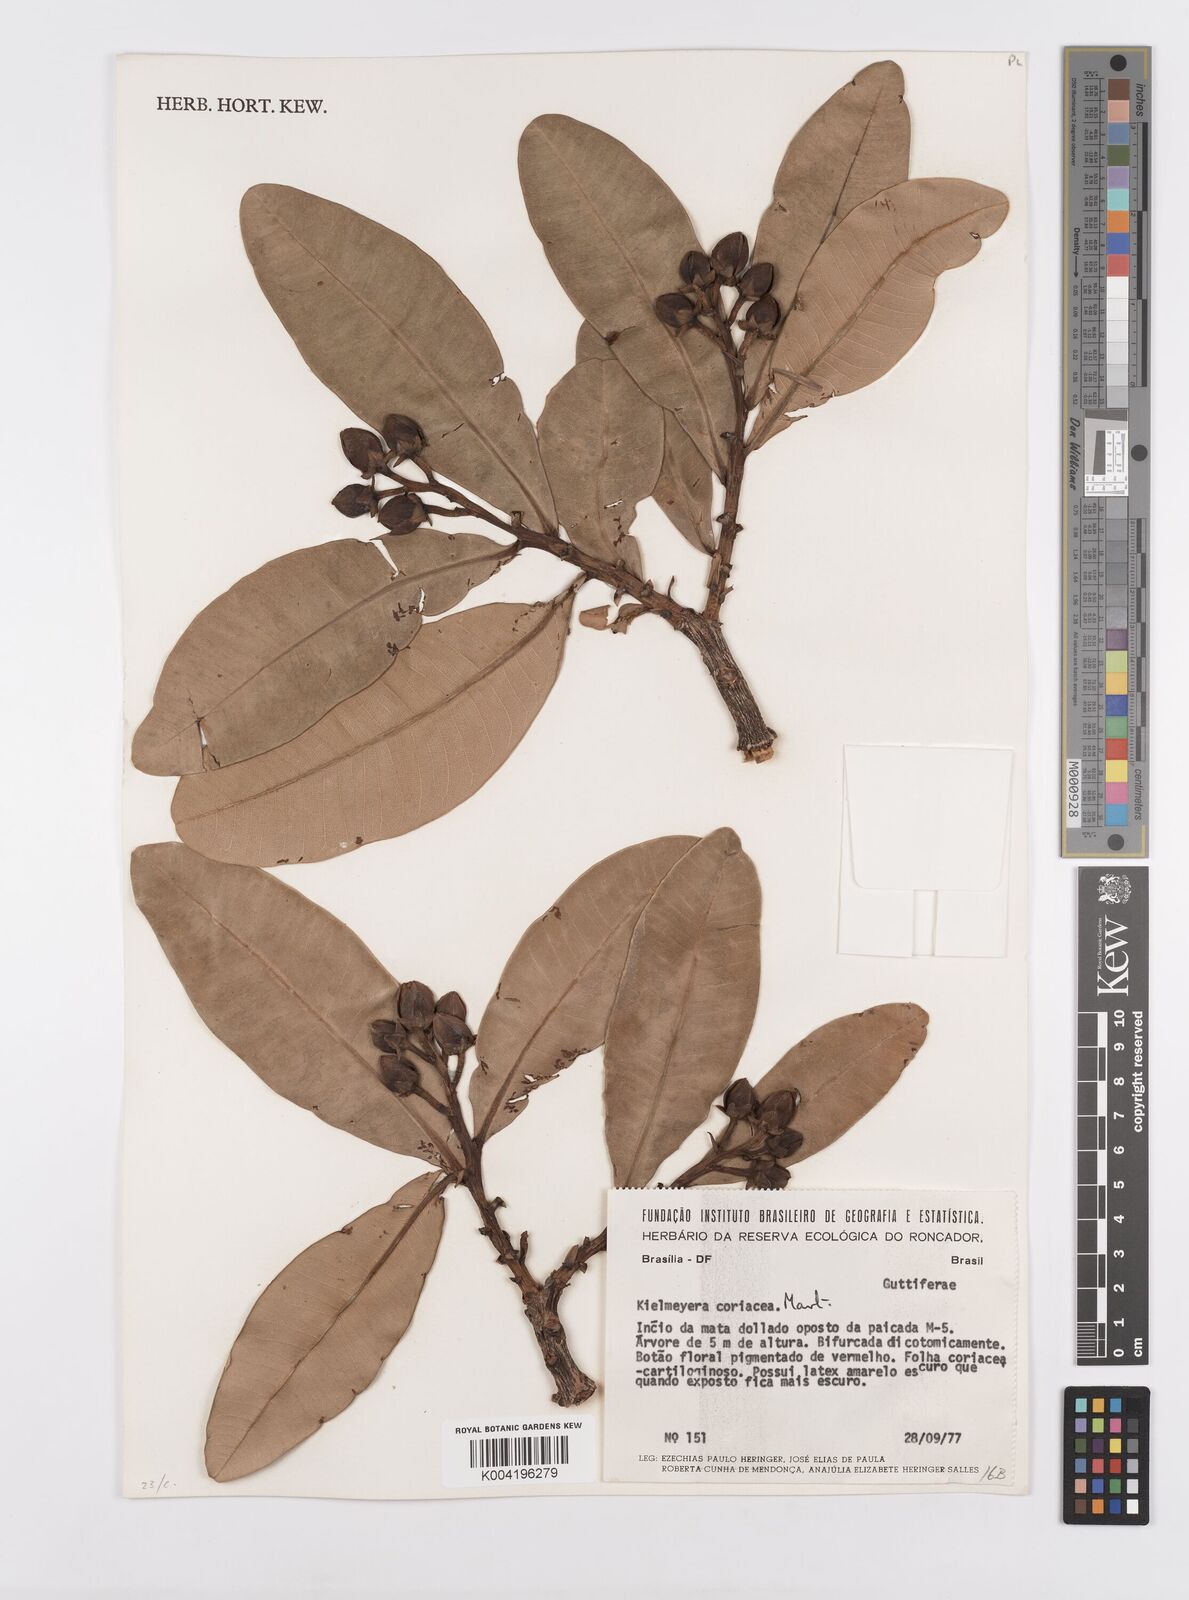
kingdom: Plantae
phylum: Tracheophyta
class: Magnoliopsida
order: Malpighiales
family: Calophyllaceae
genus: Kielmeyera
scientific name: Kielmeyera coriacea
